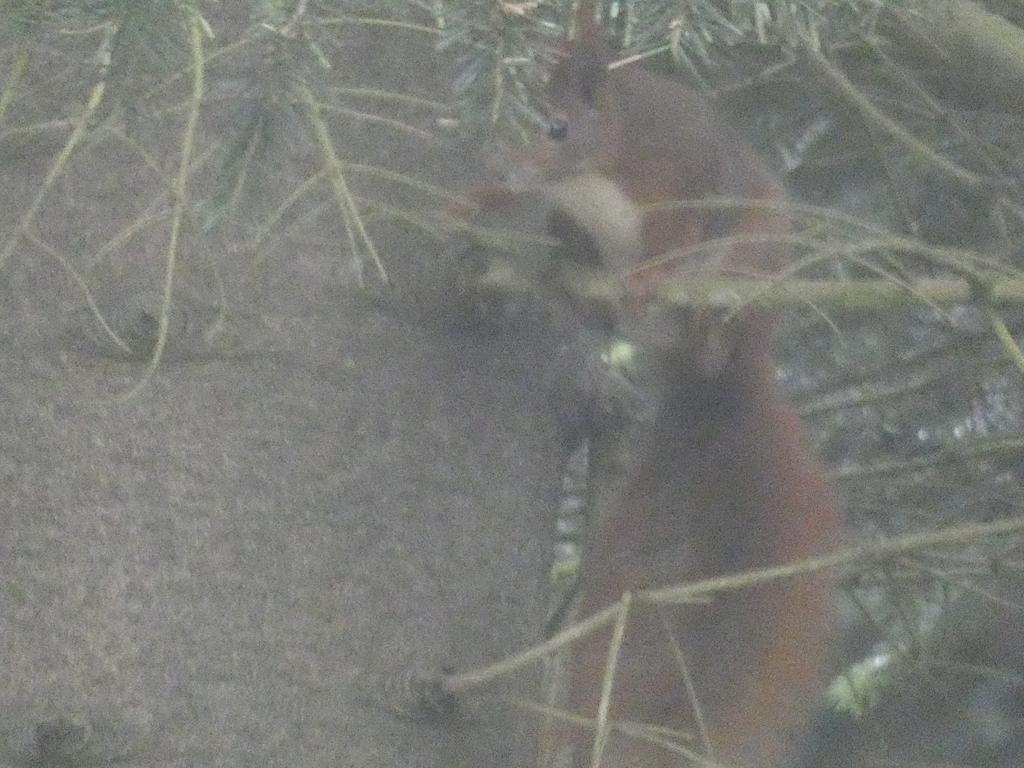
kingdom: Animalia
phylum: Chordata
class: Mammalia
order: Rodentia
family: Sciuridae
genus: Sciurus
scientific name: Sciurus vulgaris
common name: Egern
